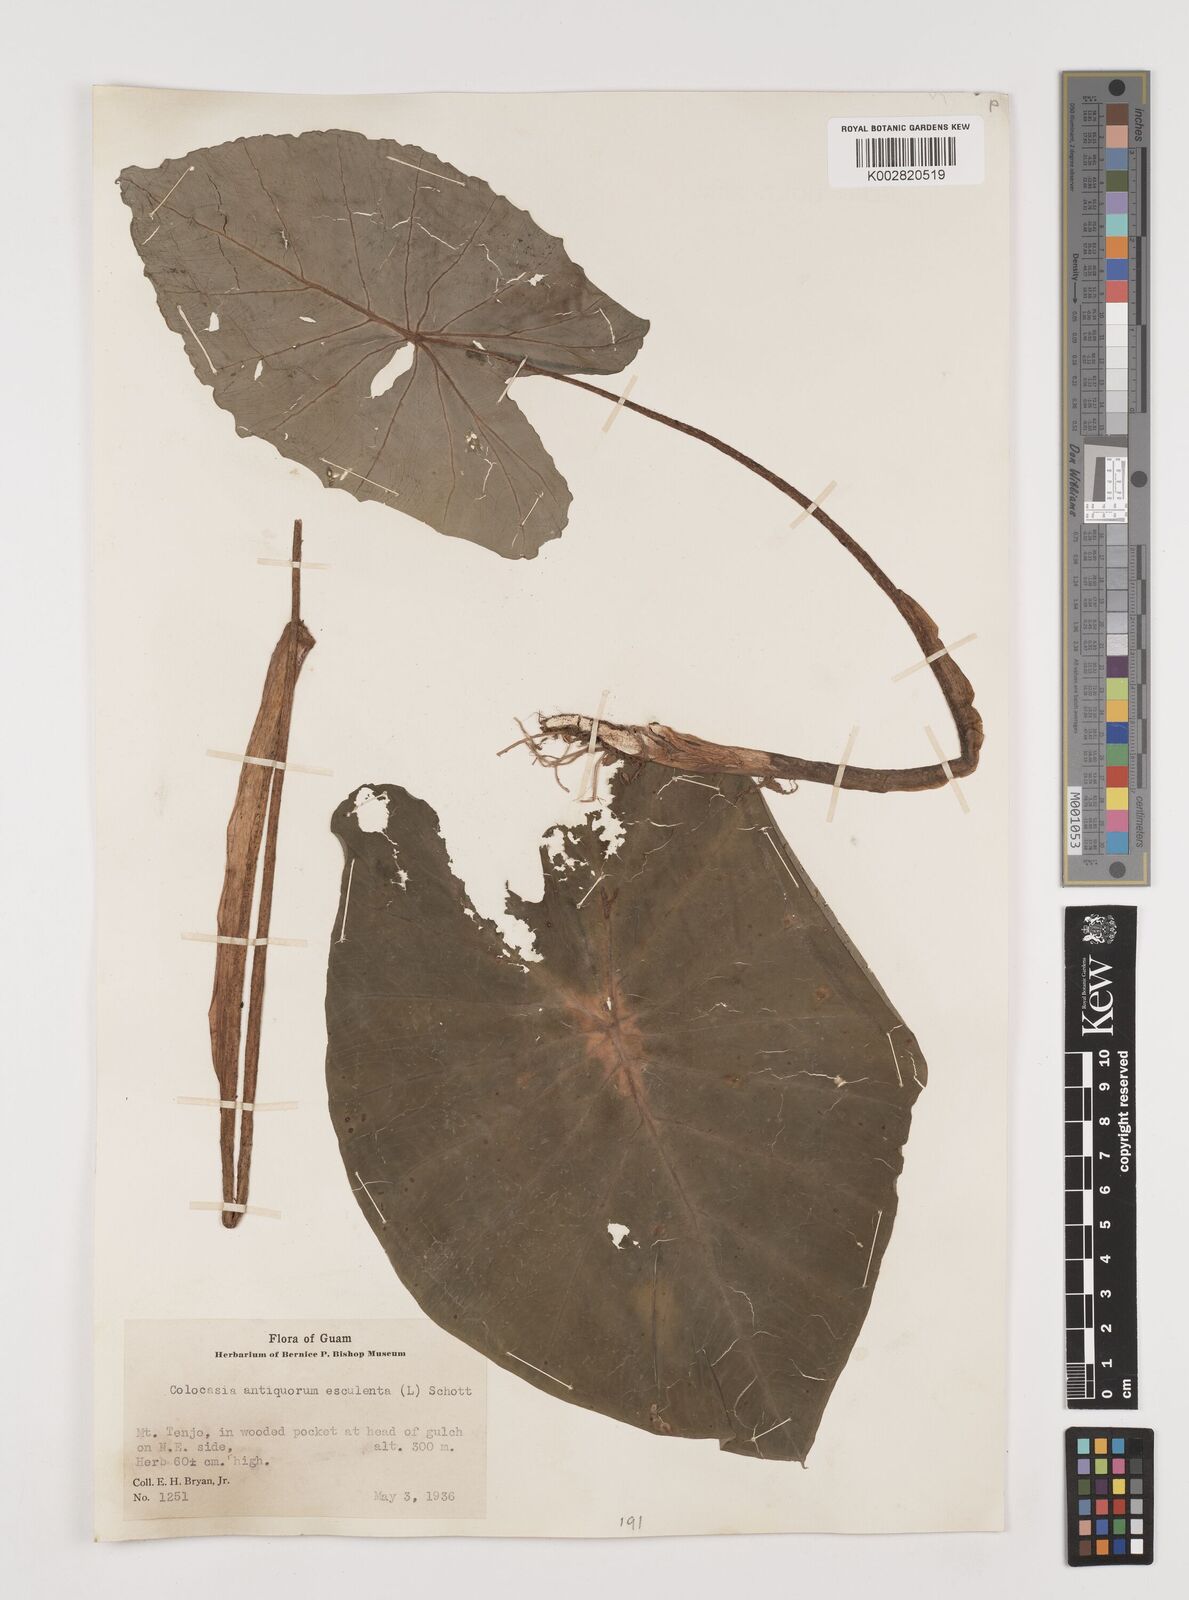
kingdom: Plantae
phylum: Tracheophyta
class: Liliopsida
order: Alismatales
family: Araceae
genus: Colocasia
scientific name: Colocasia esculenta
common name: Taro
